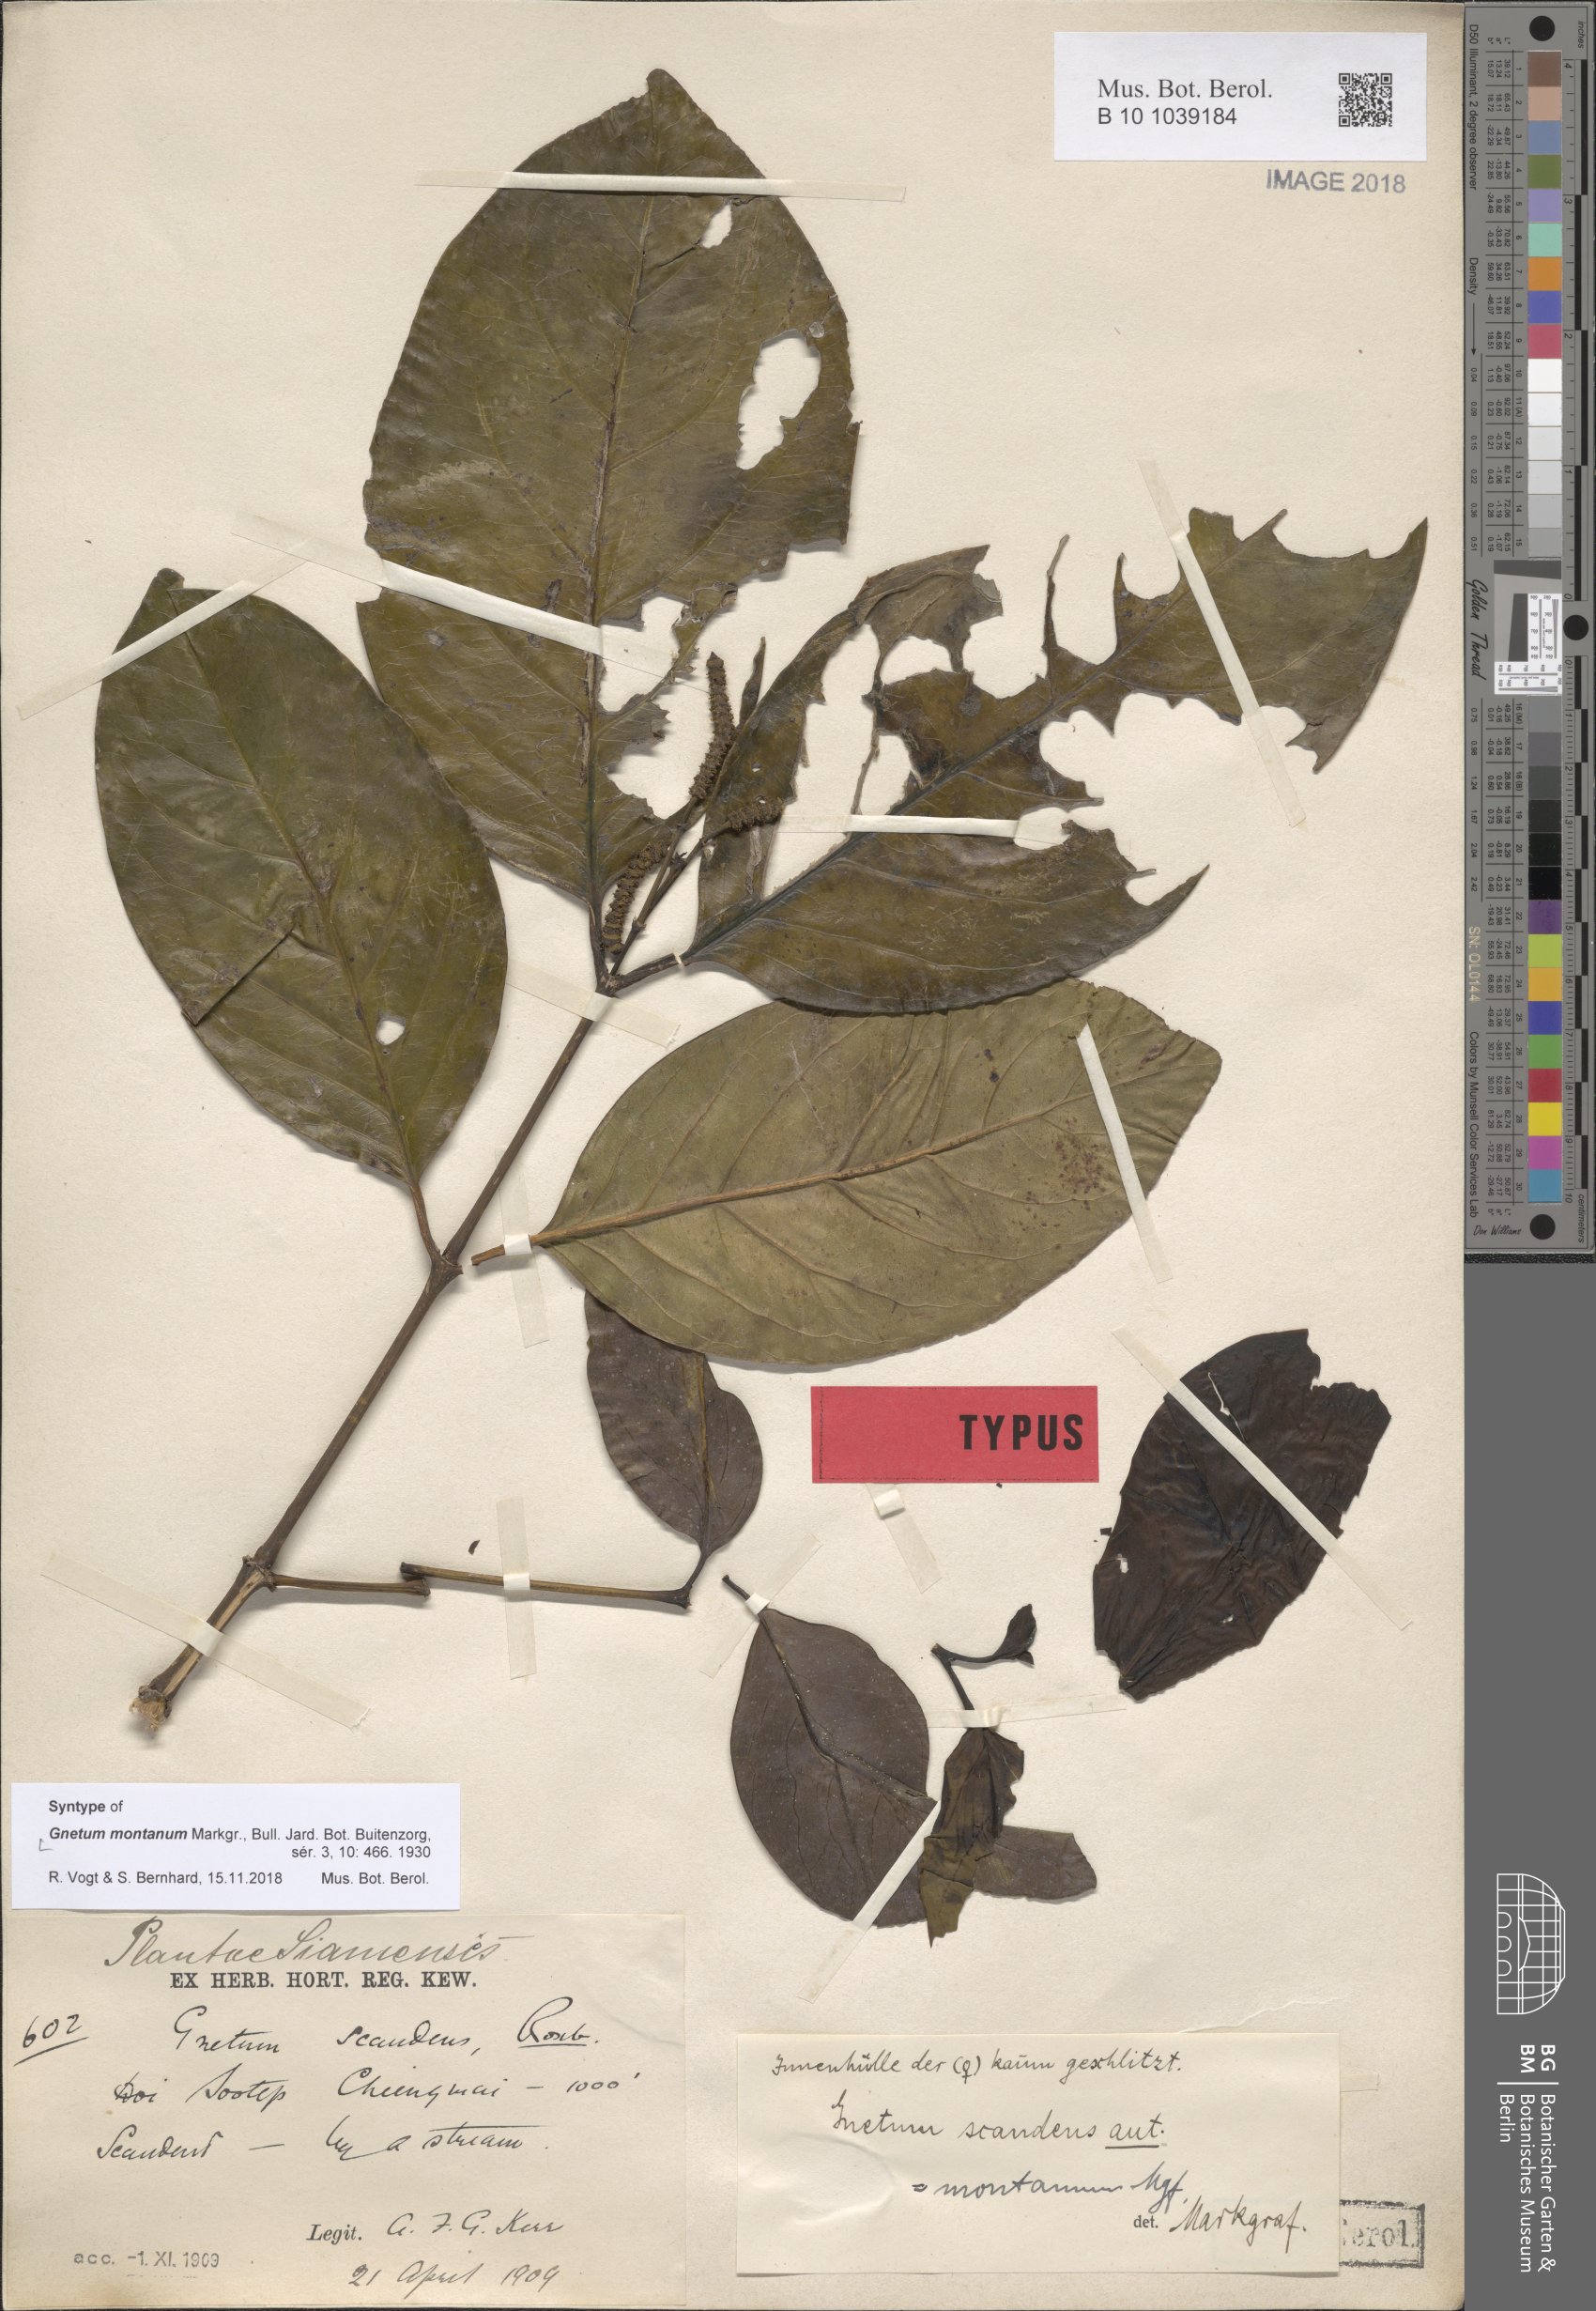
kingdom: Plantae
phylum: Tracheophyta
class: Gnetopsida
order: Gnetales
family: Gnetaceae
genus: Gnetum
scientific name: Gnetum montanum
